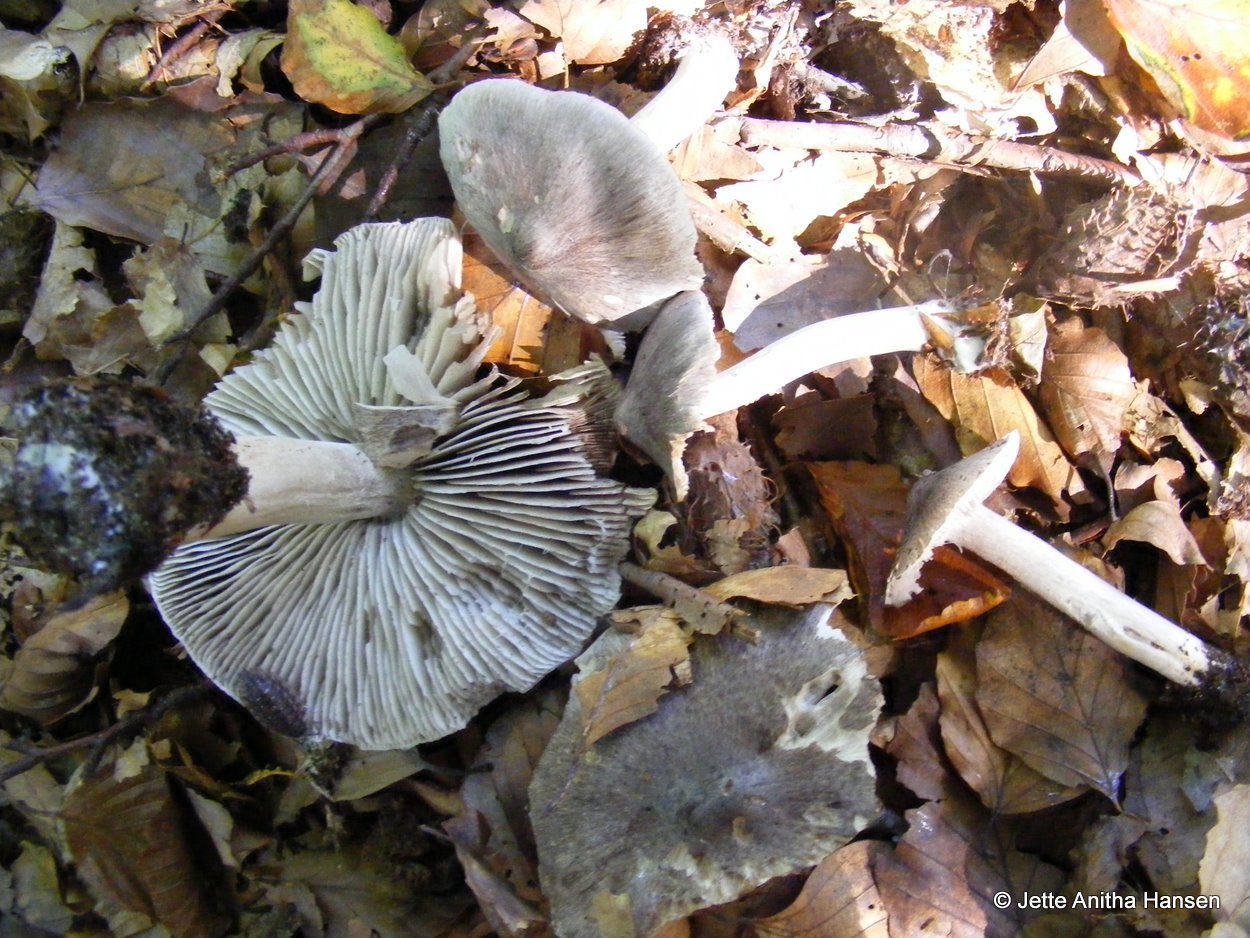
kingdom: Fungi
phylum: Basidiomycota
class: Agaricomycetes
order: Agaricales
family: Tricholomataceae
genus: Tricholoma
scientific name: Tricholoma sciodes
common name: stribet ridderhat
